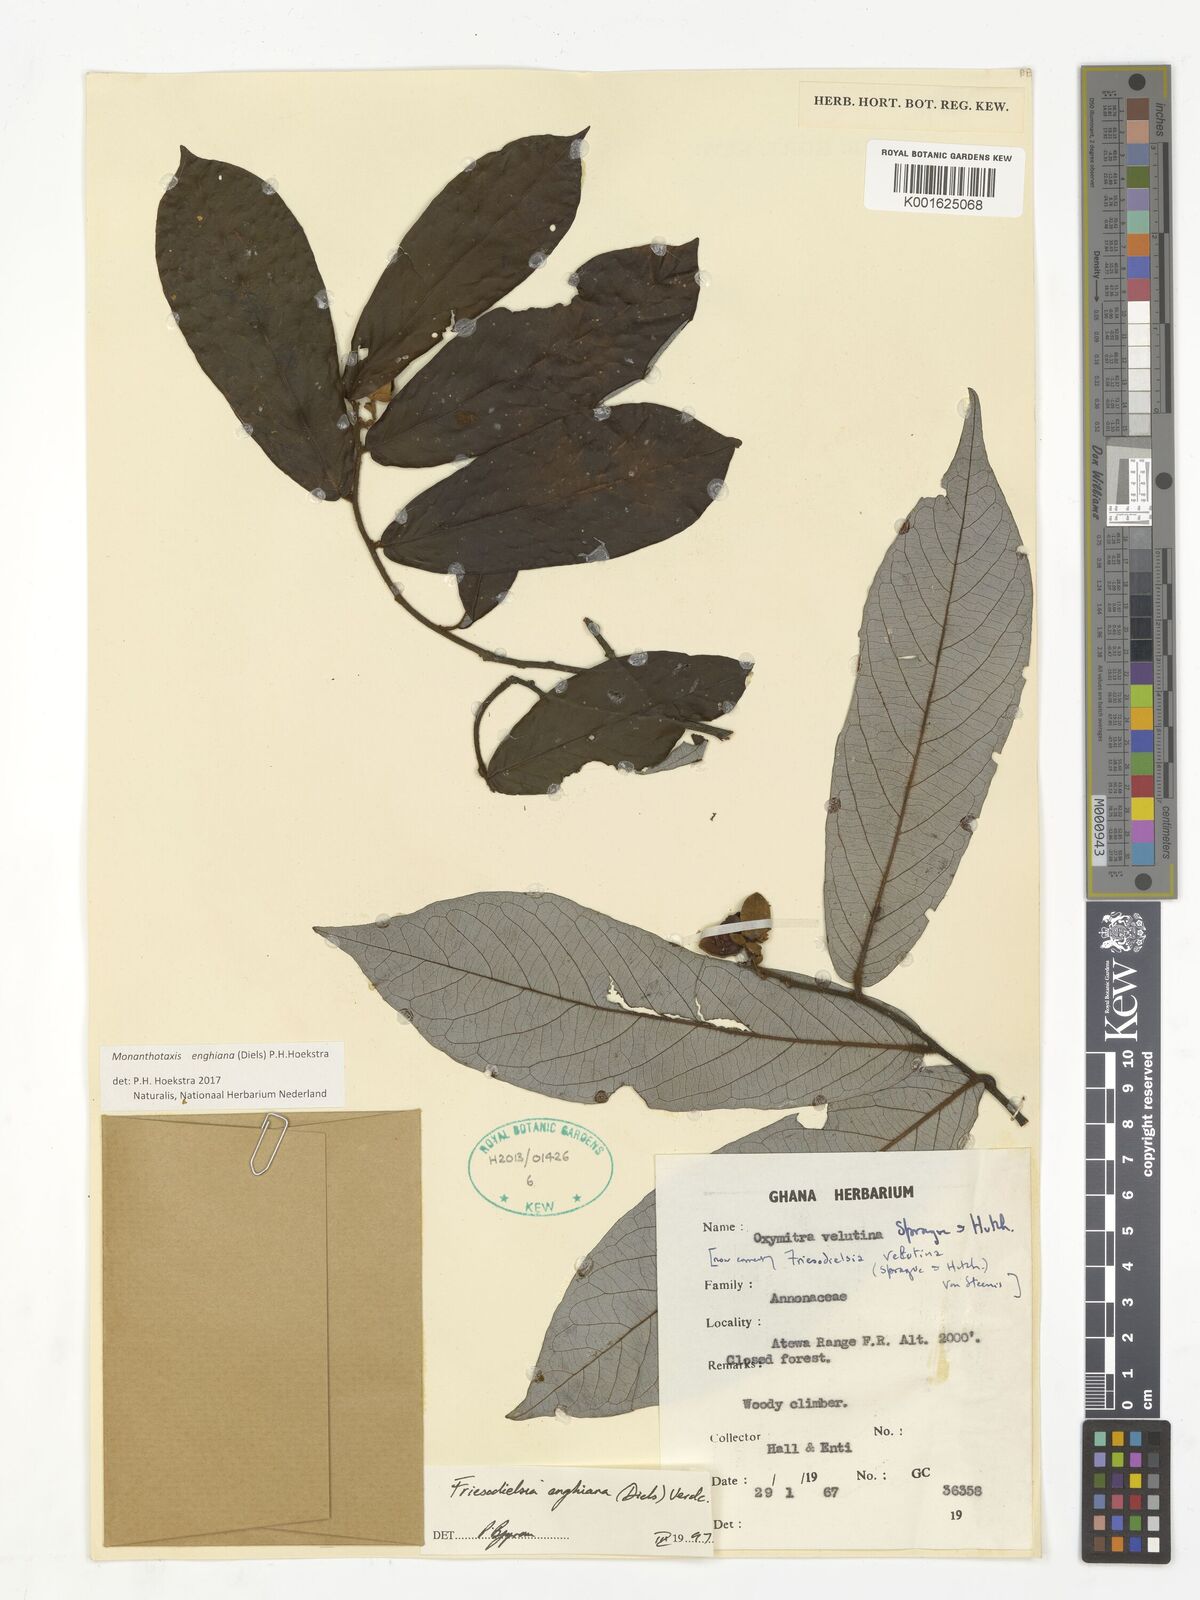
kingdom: Plantae
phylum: Tracheophyta
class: Magnoliopsida
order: Magnoliales
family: Annonaceae
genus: Friesodielsia
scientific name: Friesodielsia enghiana
